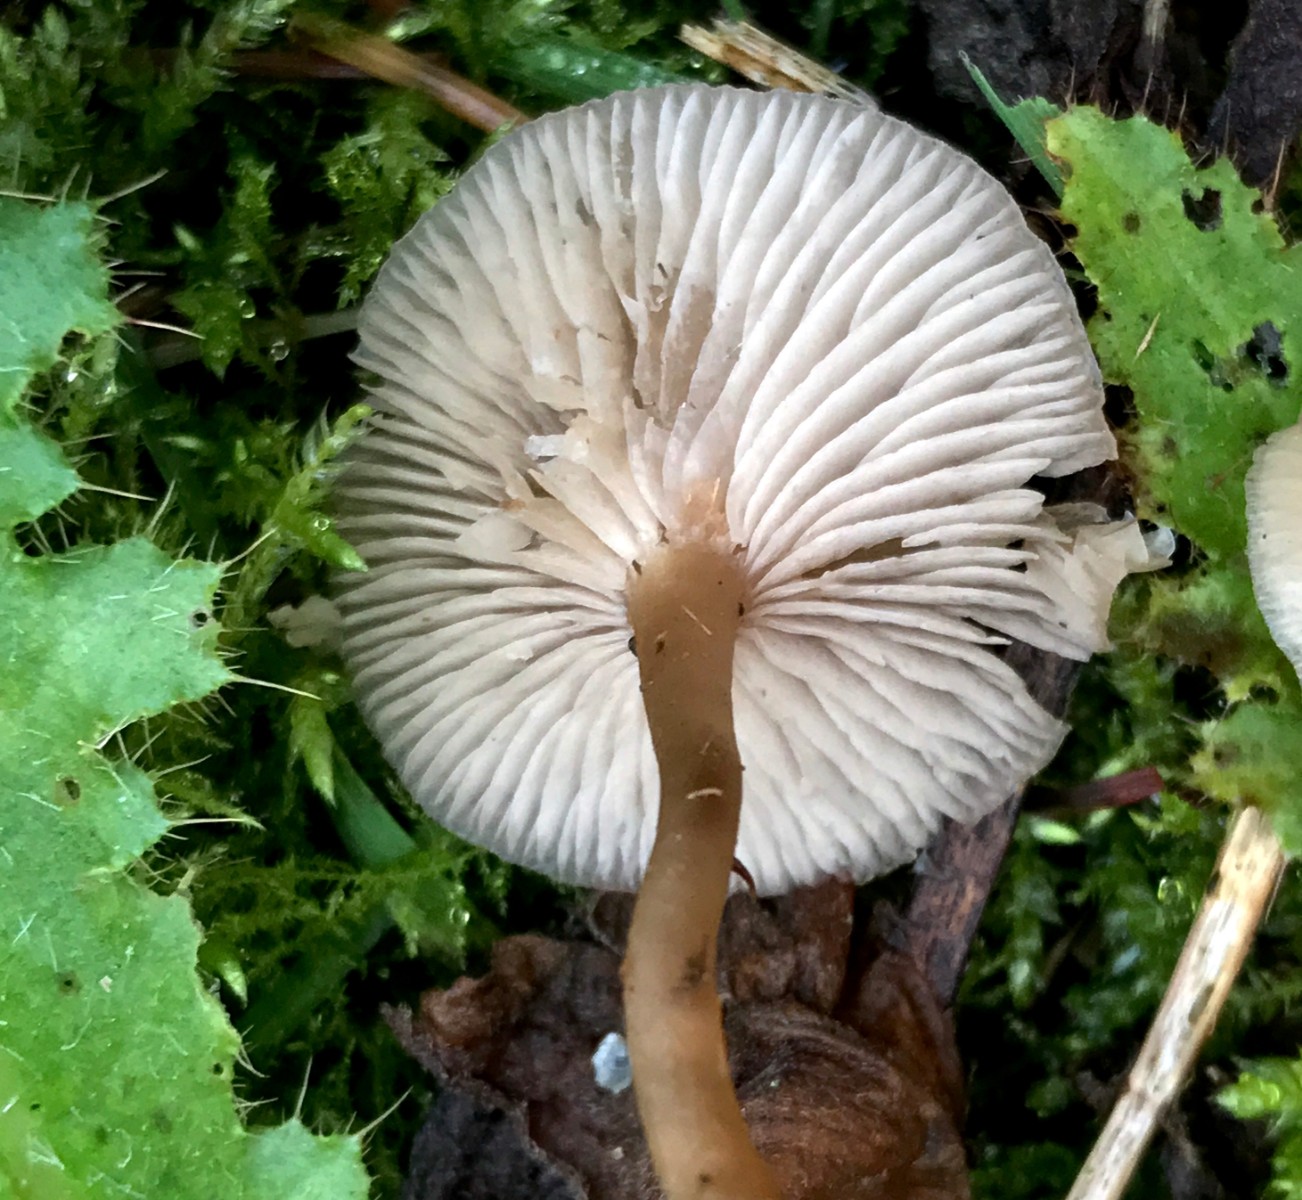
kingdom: Fungi
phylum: Basidiomycota
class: Agaricomycetes
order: Agaricales
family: Tricholomataceae
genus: Clitocybe
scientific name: Clitocybe fragrans
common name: vellugtende tragthat
